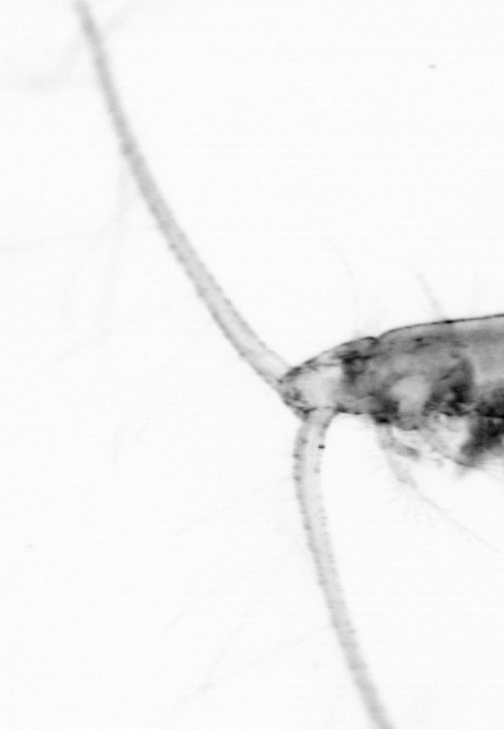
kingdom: Animalia
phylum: Arthropoda
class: Copepoda
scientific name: Copepoda
